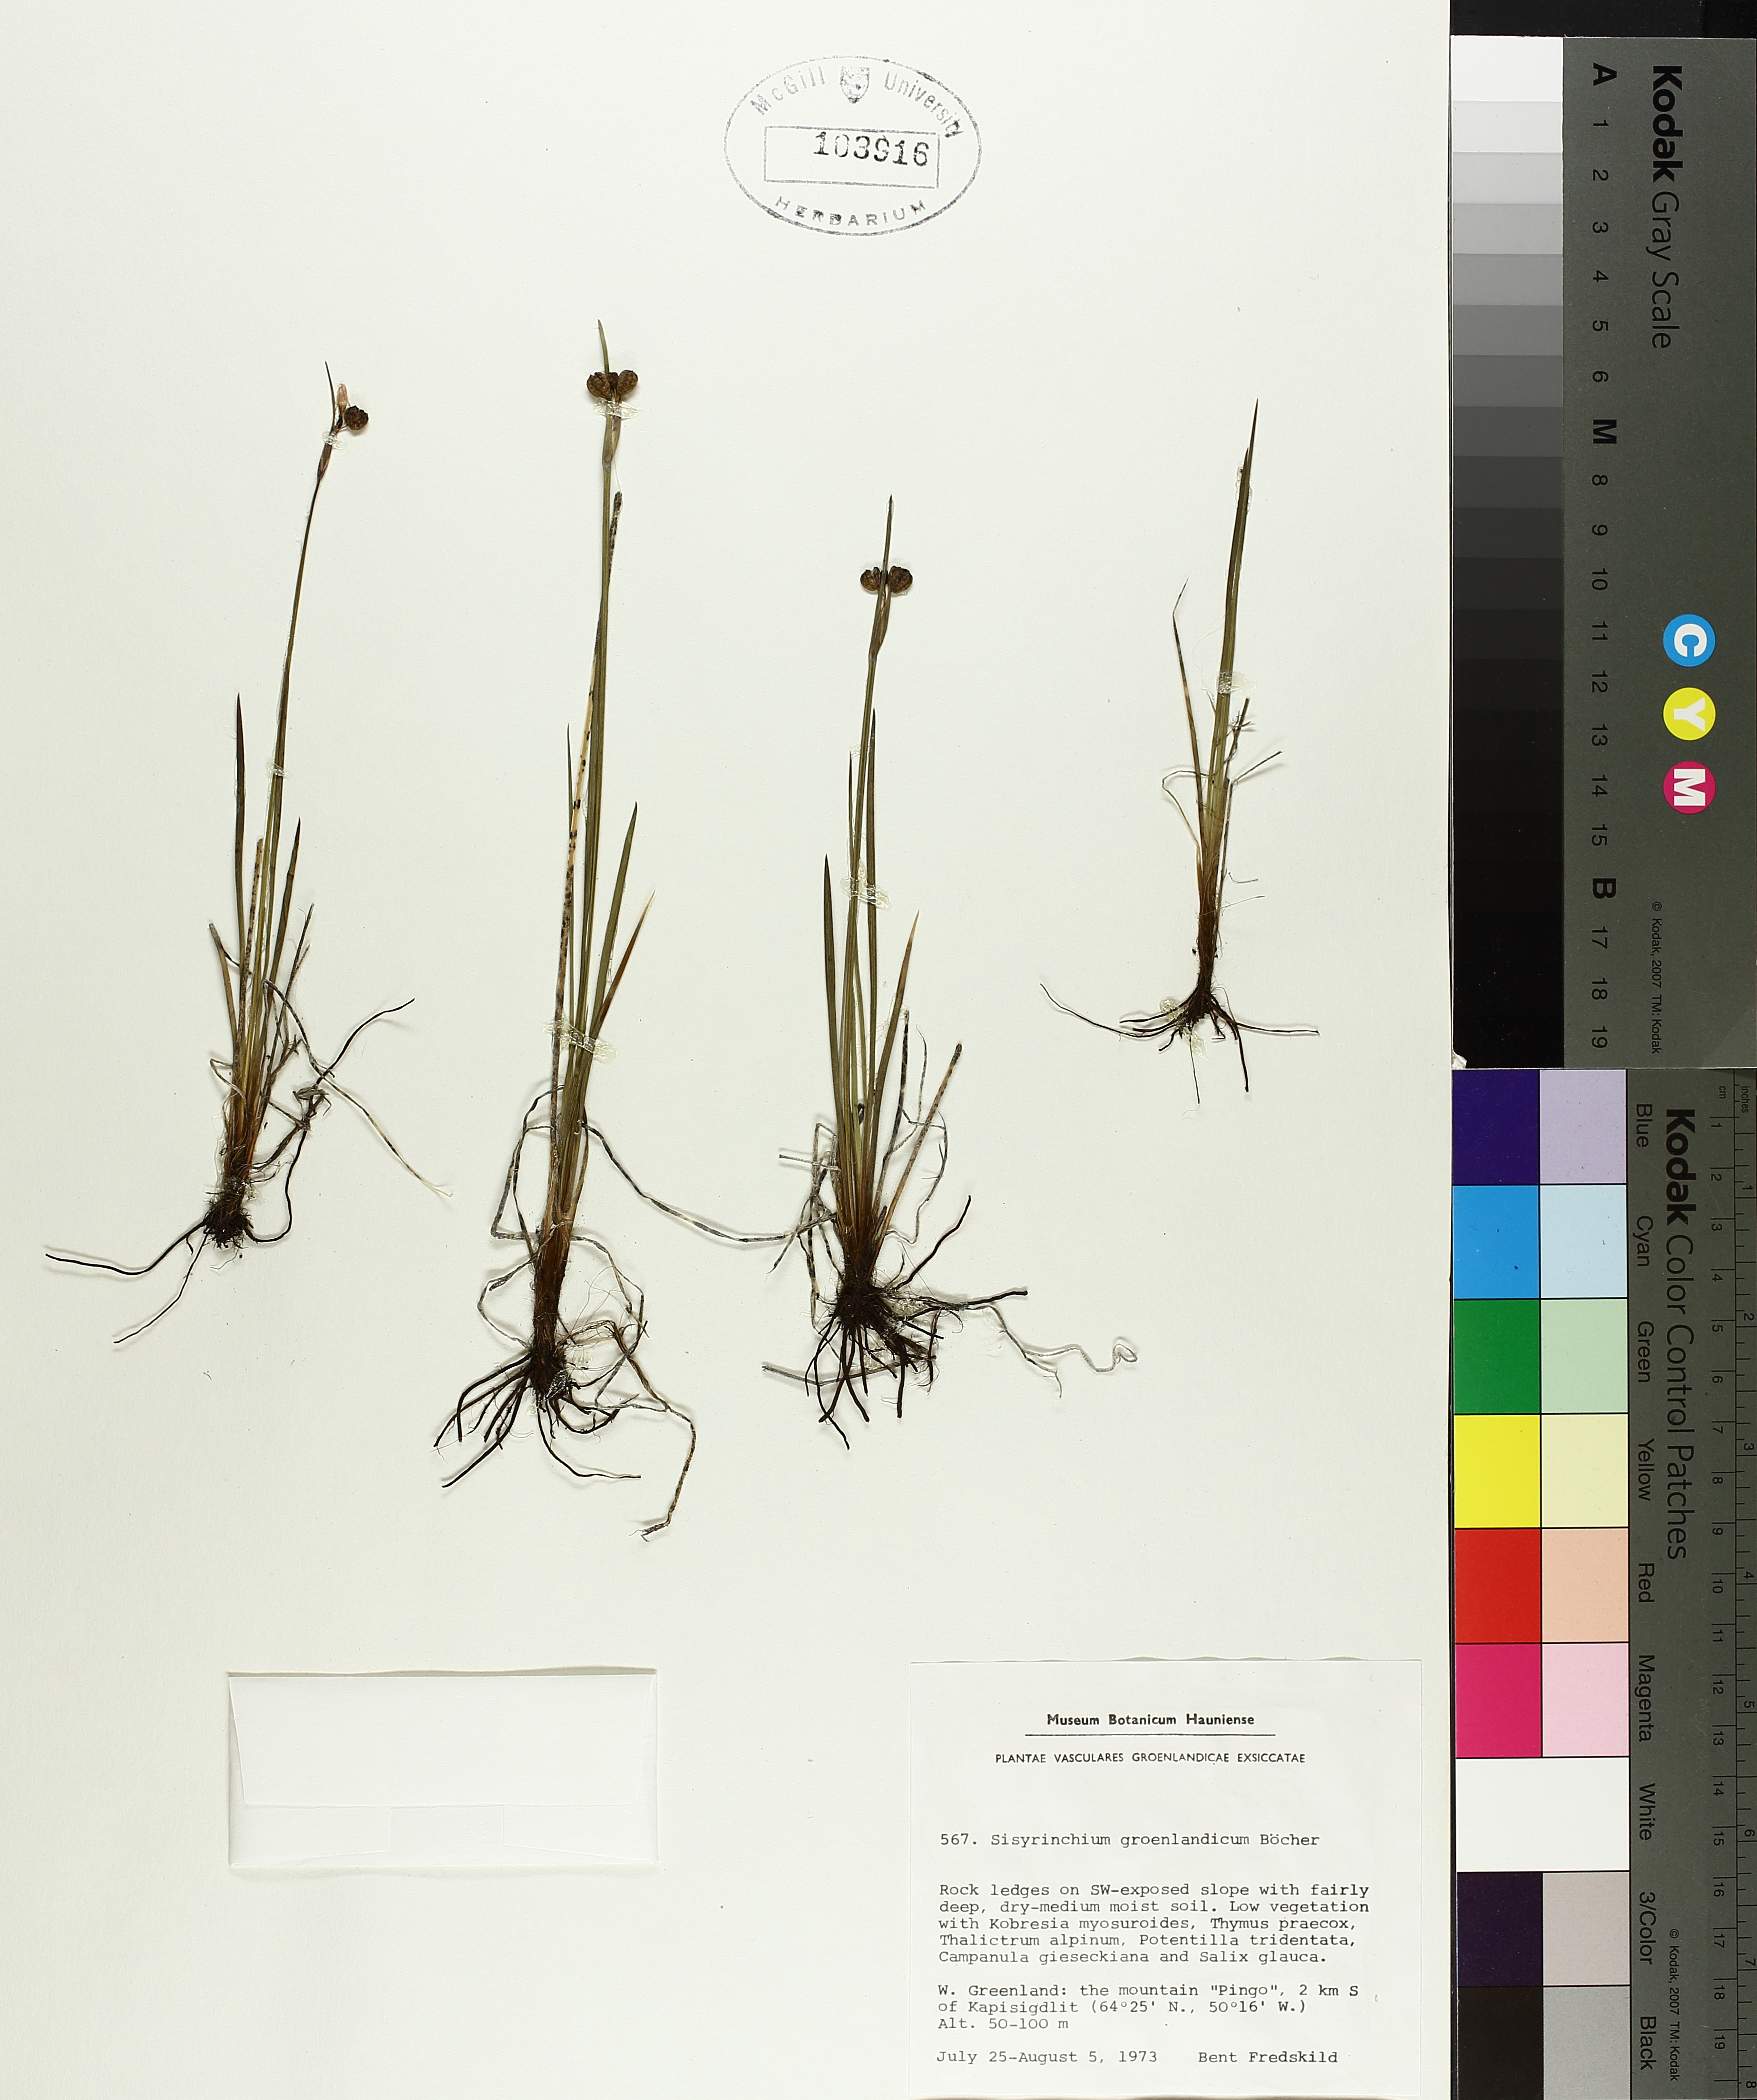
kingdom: Plantae
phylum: Tracheophyta
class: Liliopsida
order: Asparagales
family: Iridaceae
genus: Sisyrinchium
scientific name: Sisyrinchium groenlandicum
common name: Greenland blue-eyed grass
